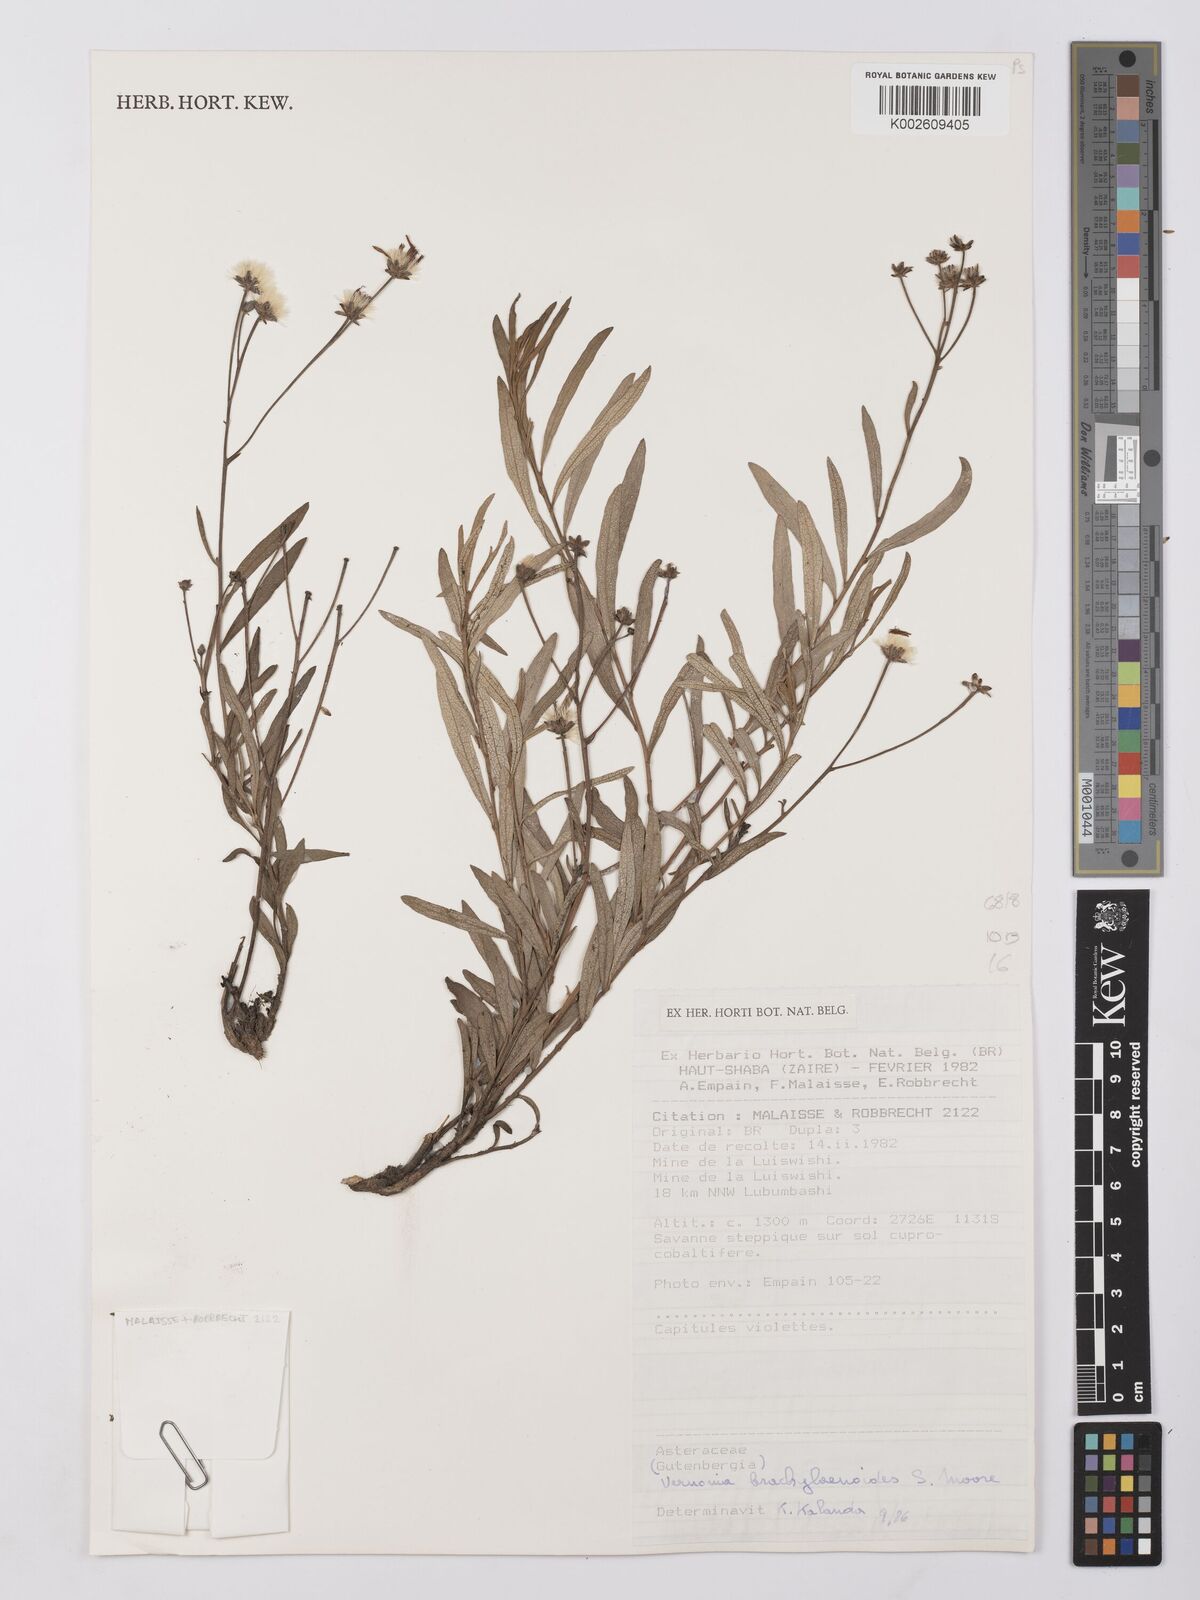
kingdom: Plantae
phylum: Tracheophyta
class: Magnoliopsida
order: Asterales
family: Asteraceae
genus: Gymnanthemum
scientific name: Gymnanthemum glaberrimum
